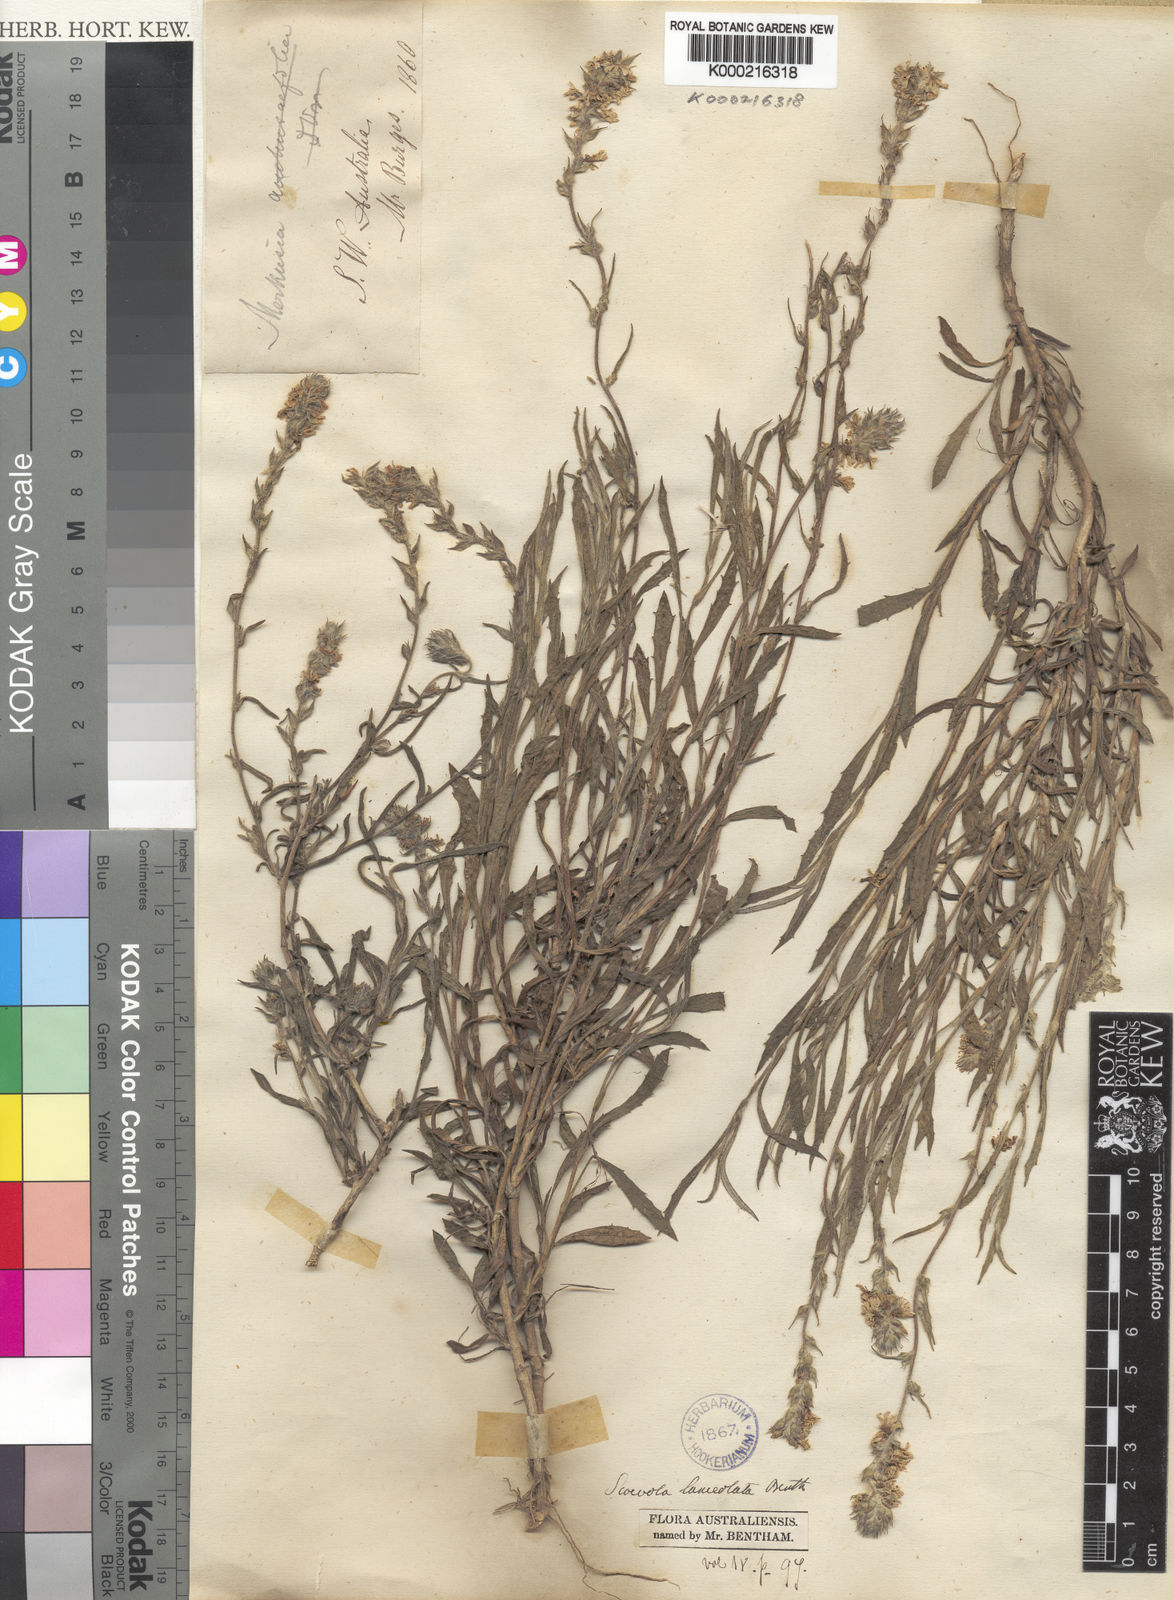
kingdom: Plantae
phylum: Tracheophyta
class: Magnoliopsida
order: Asterales
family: Goodeniaceae
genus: Scaevola
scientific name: Scaevola lanceolata
